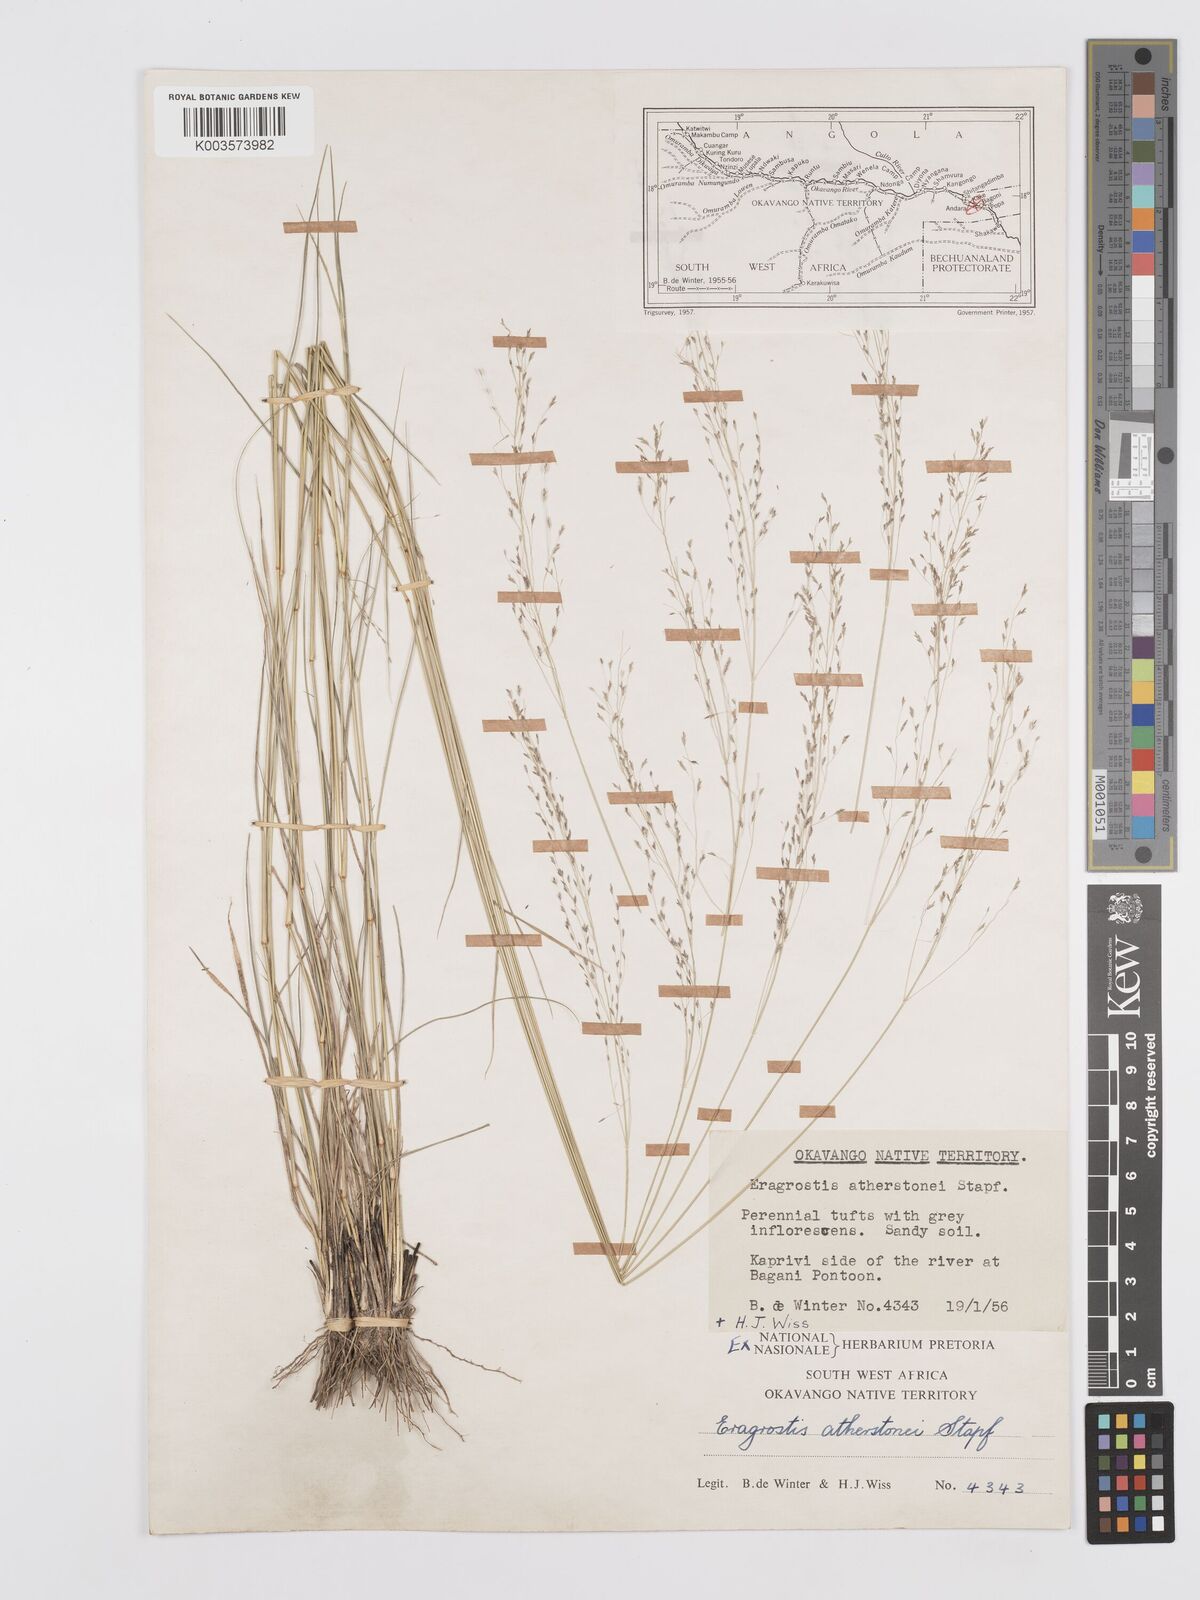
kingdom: Plantae
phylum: Tracheophyta
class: Liliopsida
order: Poales
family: Poaceae
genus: Eragrostis
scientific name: Eragrostis cylindriflora
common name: Cylinderflower lovegrass
